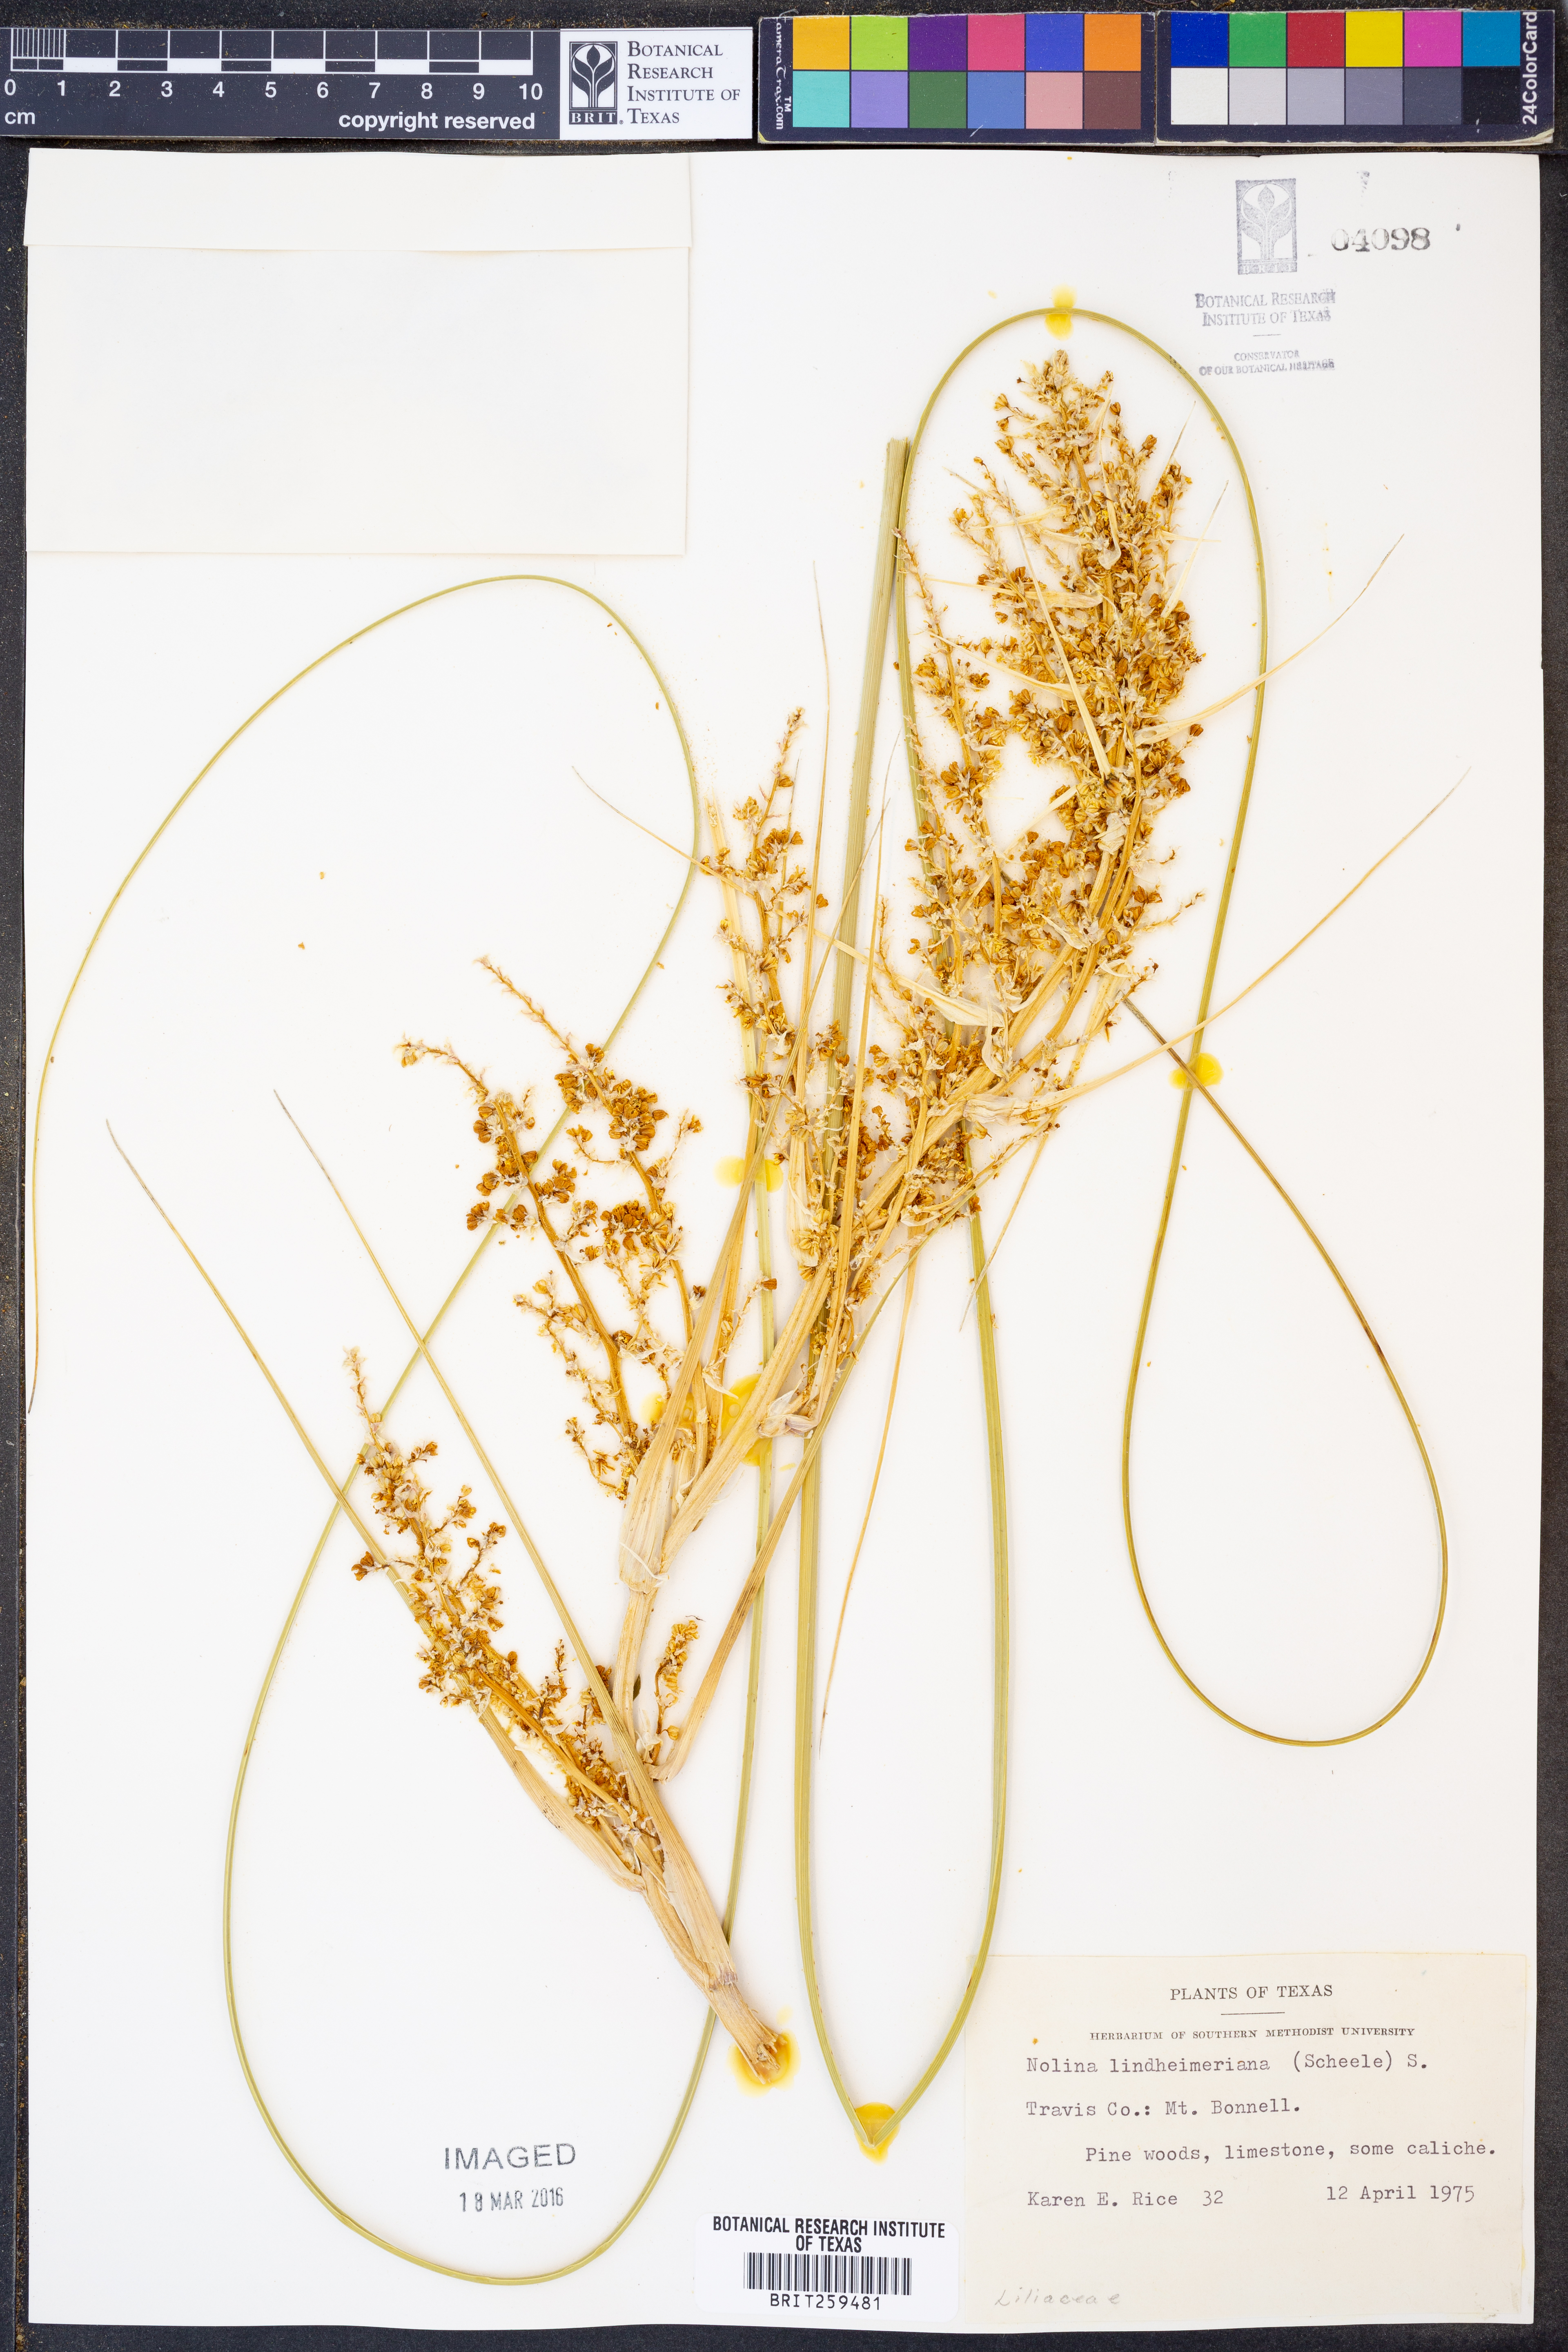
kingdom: Plantae
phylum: Tracheophyta
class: Liliopsida
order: Asparagales
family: Asparagaceae
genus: Nolina
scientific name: Nolina lindheimeriana
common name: Lindheimer's bear-grass
